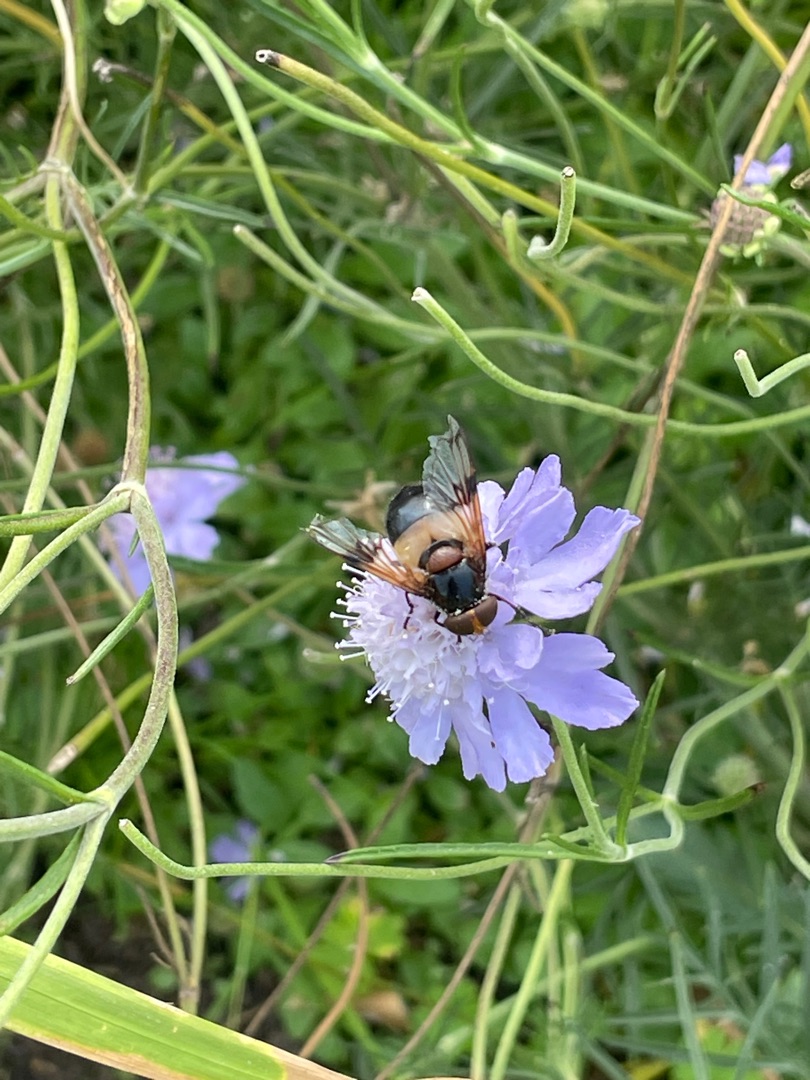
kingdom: Animalia
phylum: Arthropoda
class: Insecta
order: Diptera
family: Syrphidae
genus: Volucella
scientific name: Volucella pellucens
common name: Hvidbåndet humlesvirreflue
